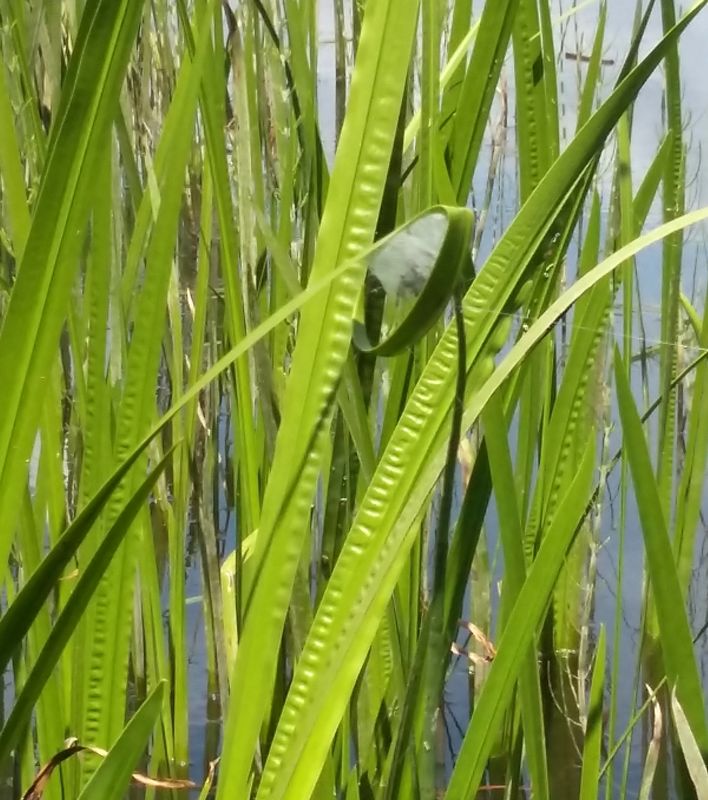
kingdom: Animalia
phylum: Arthropoda
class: Arachnida
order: Araneae
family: Clubionidae
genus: Clubiona
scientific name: Clubiona
